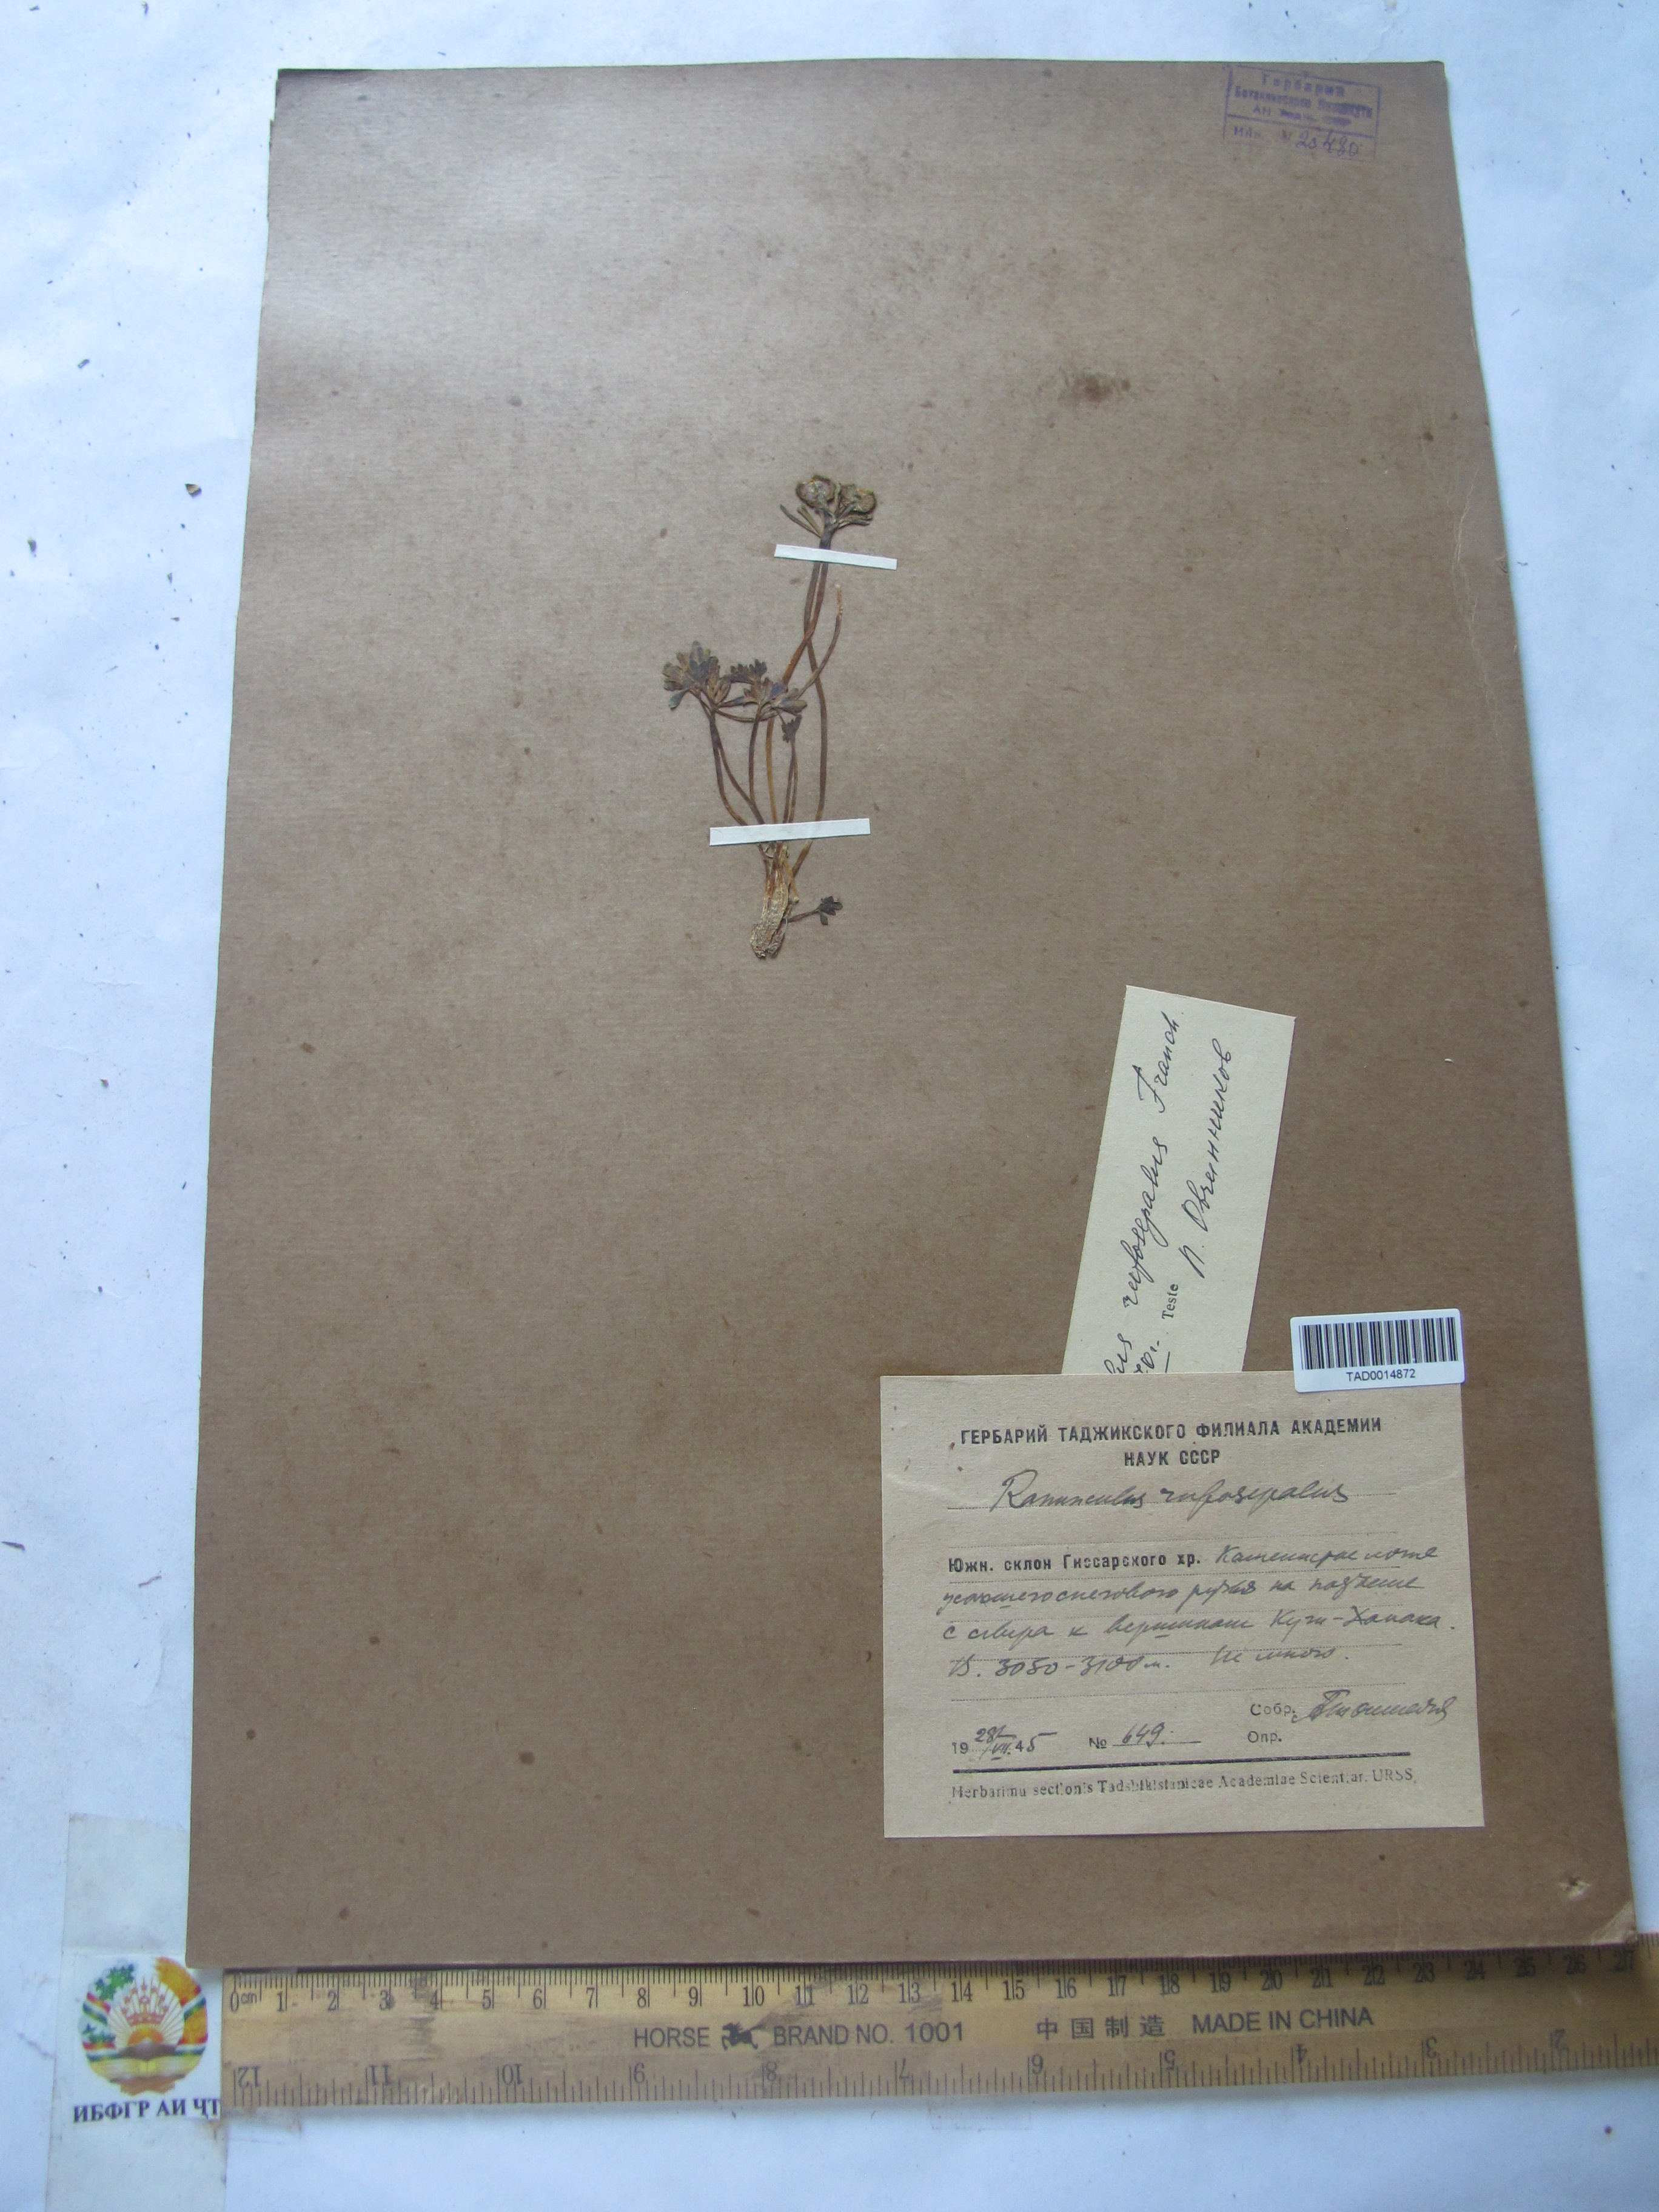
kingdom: Plantae
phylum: Tracheophyta
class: Magnoliopsida
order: Ranunculales
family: Ranunculaceae
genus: Ranunculus
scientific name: Ranunculus rufosepalus
